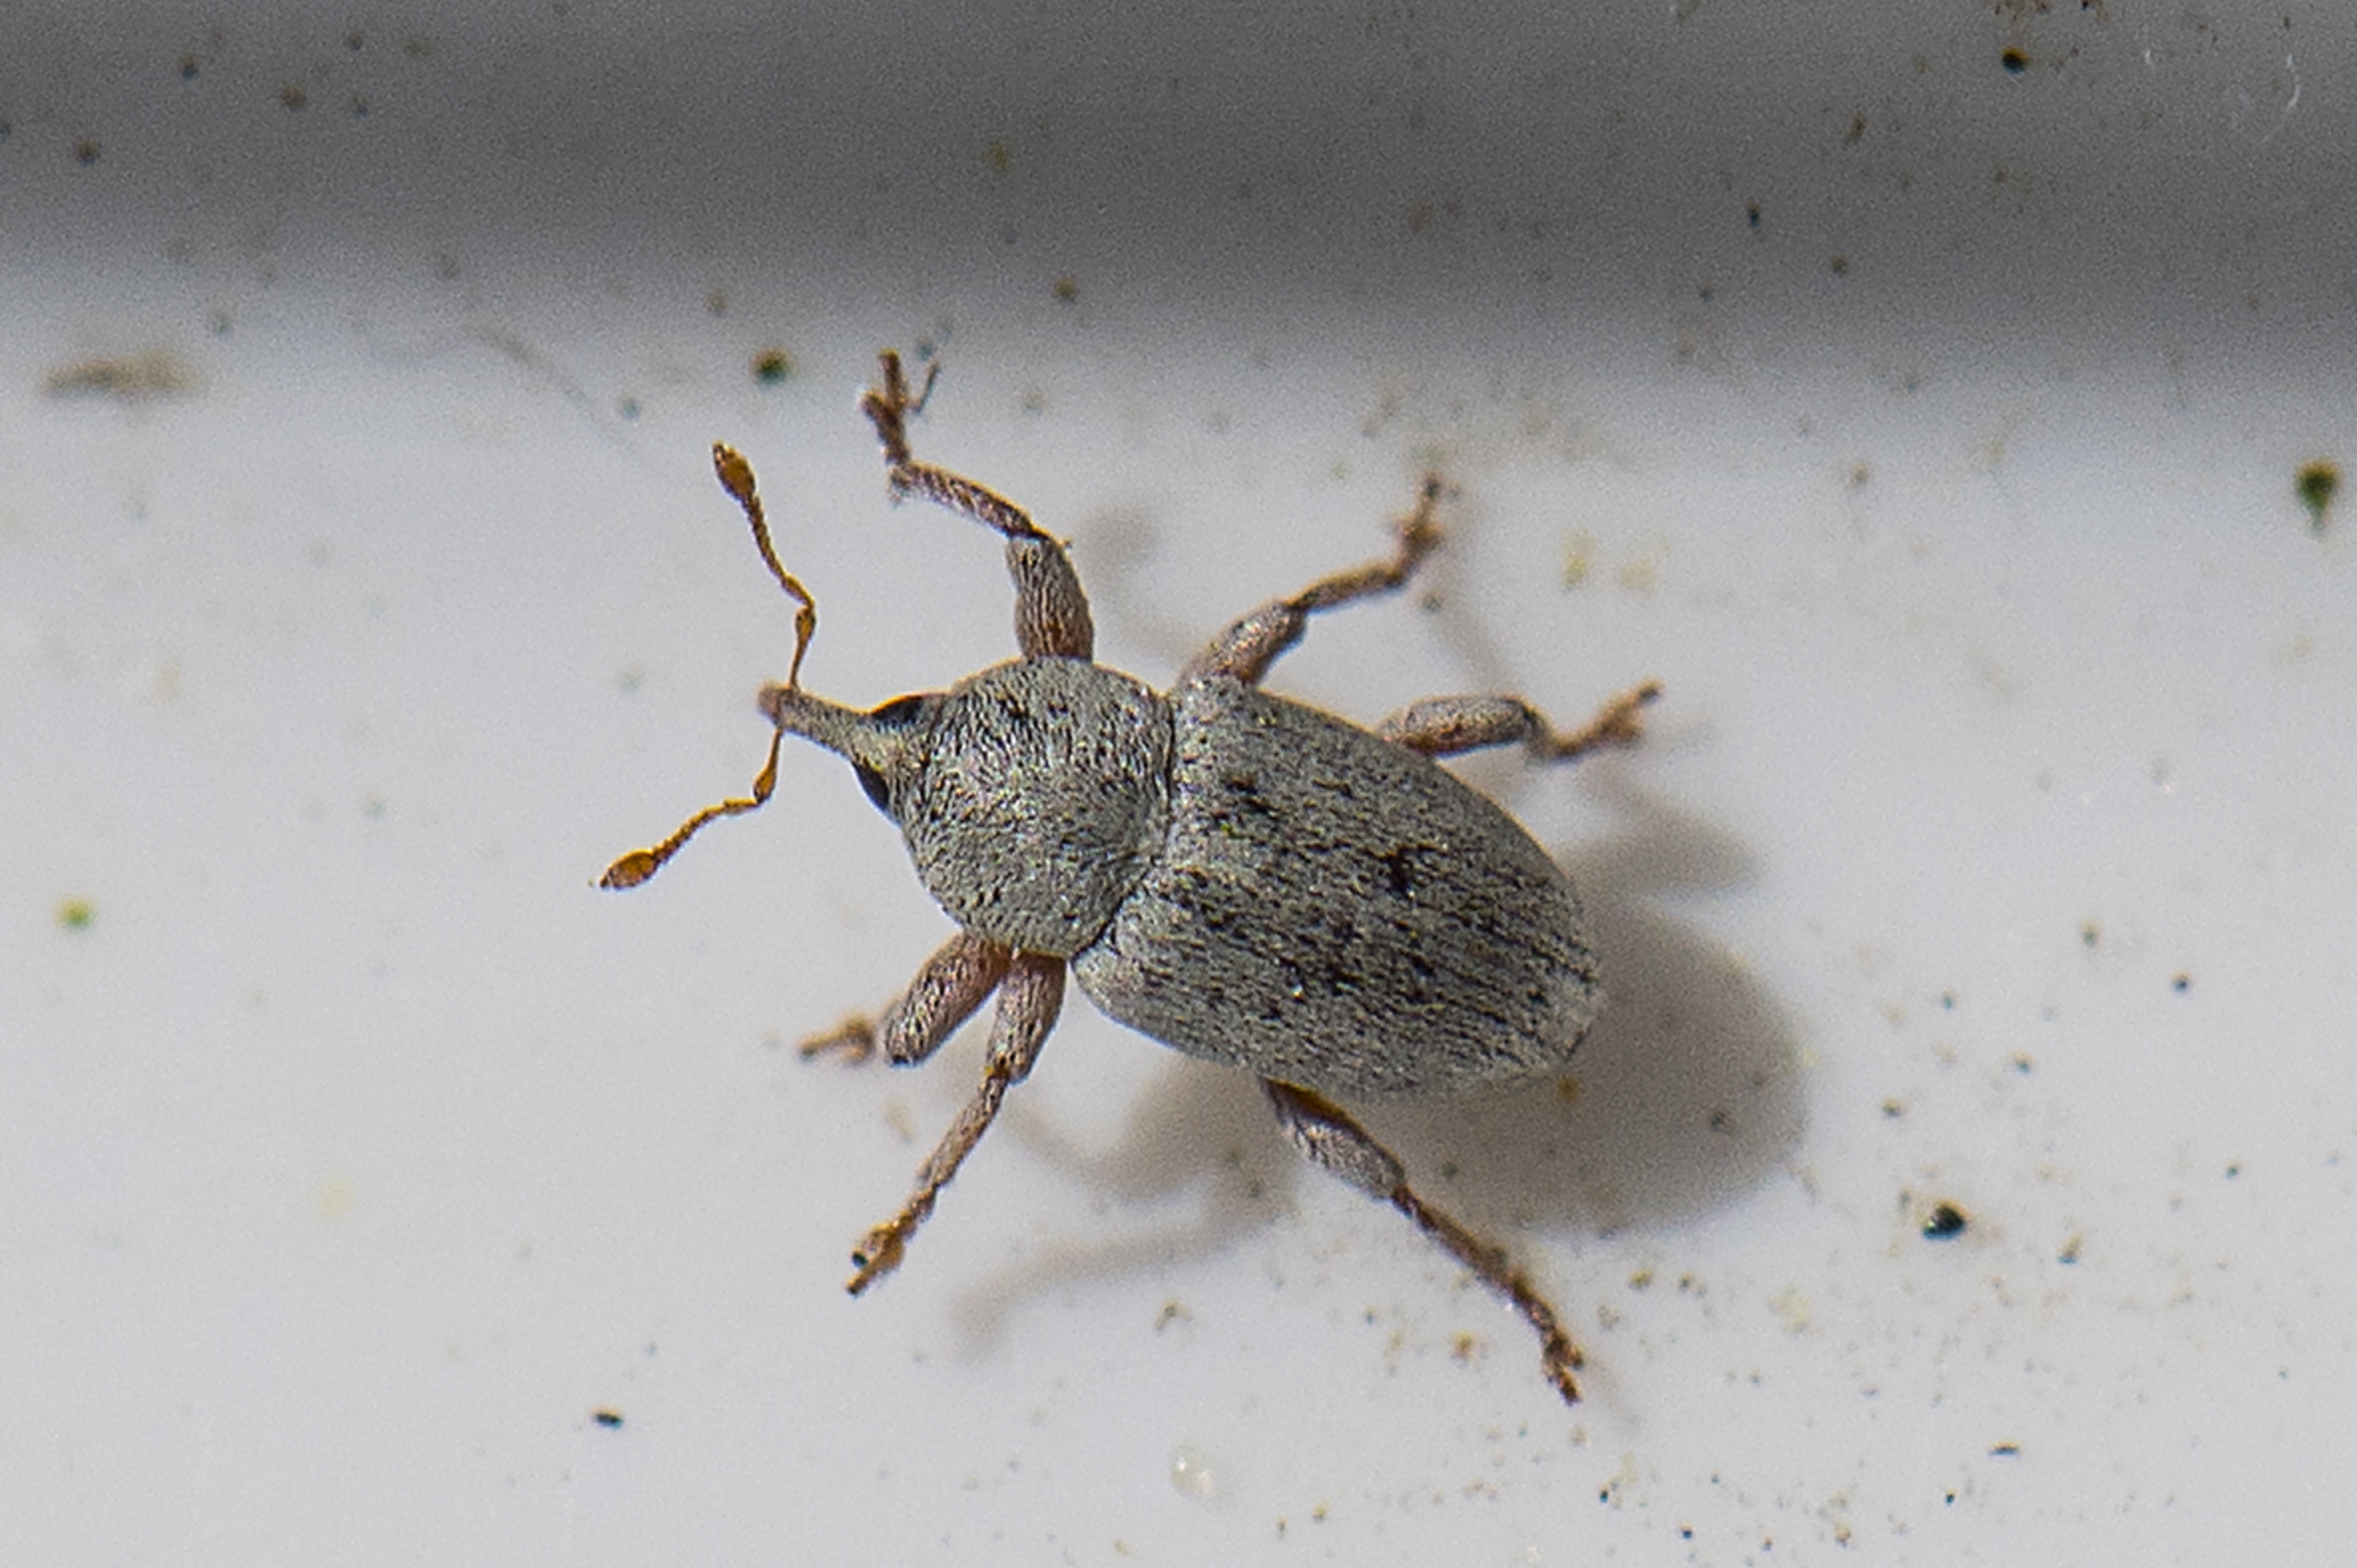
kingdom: Animalia
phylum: Arthropoda
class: Insecta
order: Coleoptera
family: Curculionidae
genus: Tychius
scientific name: Tychius breviusculus
